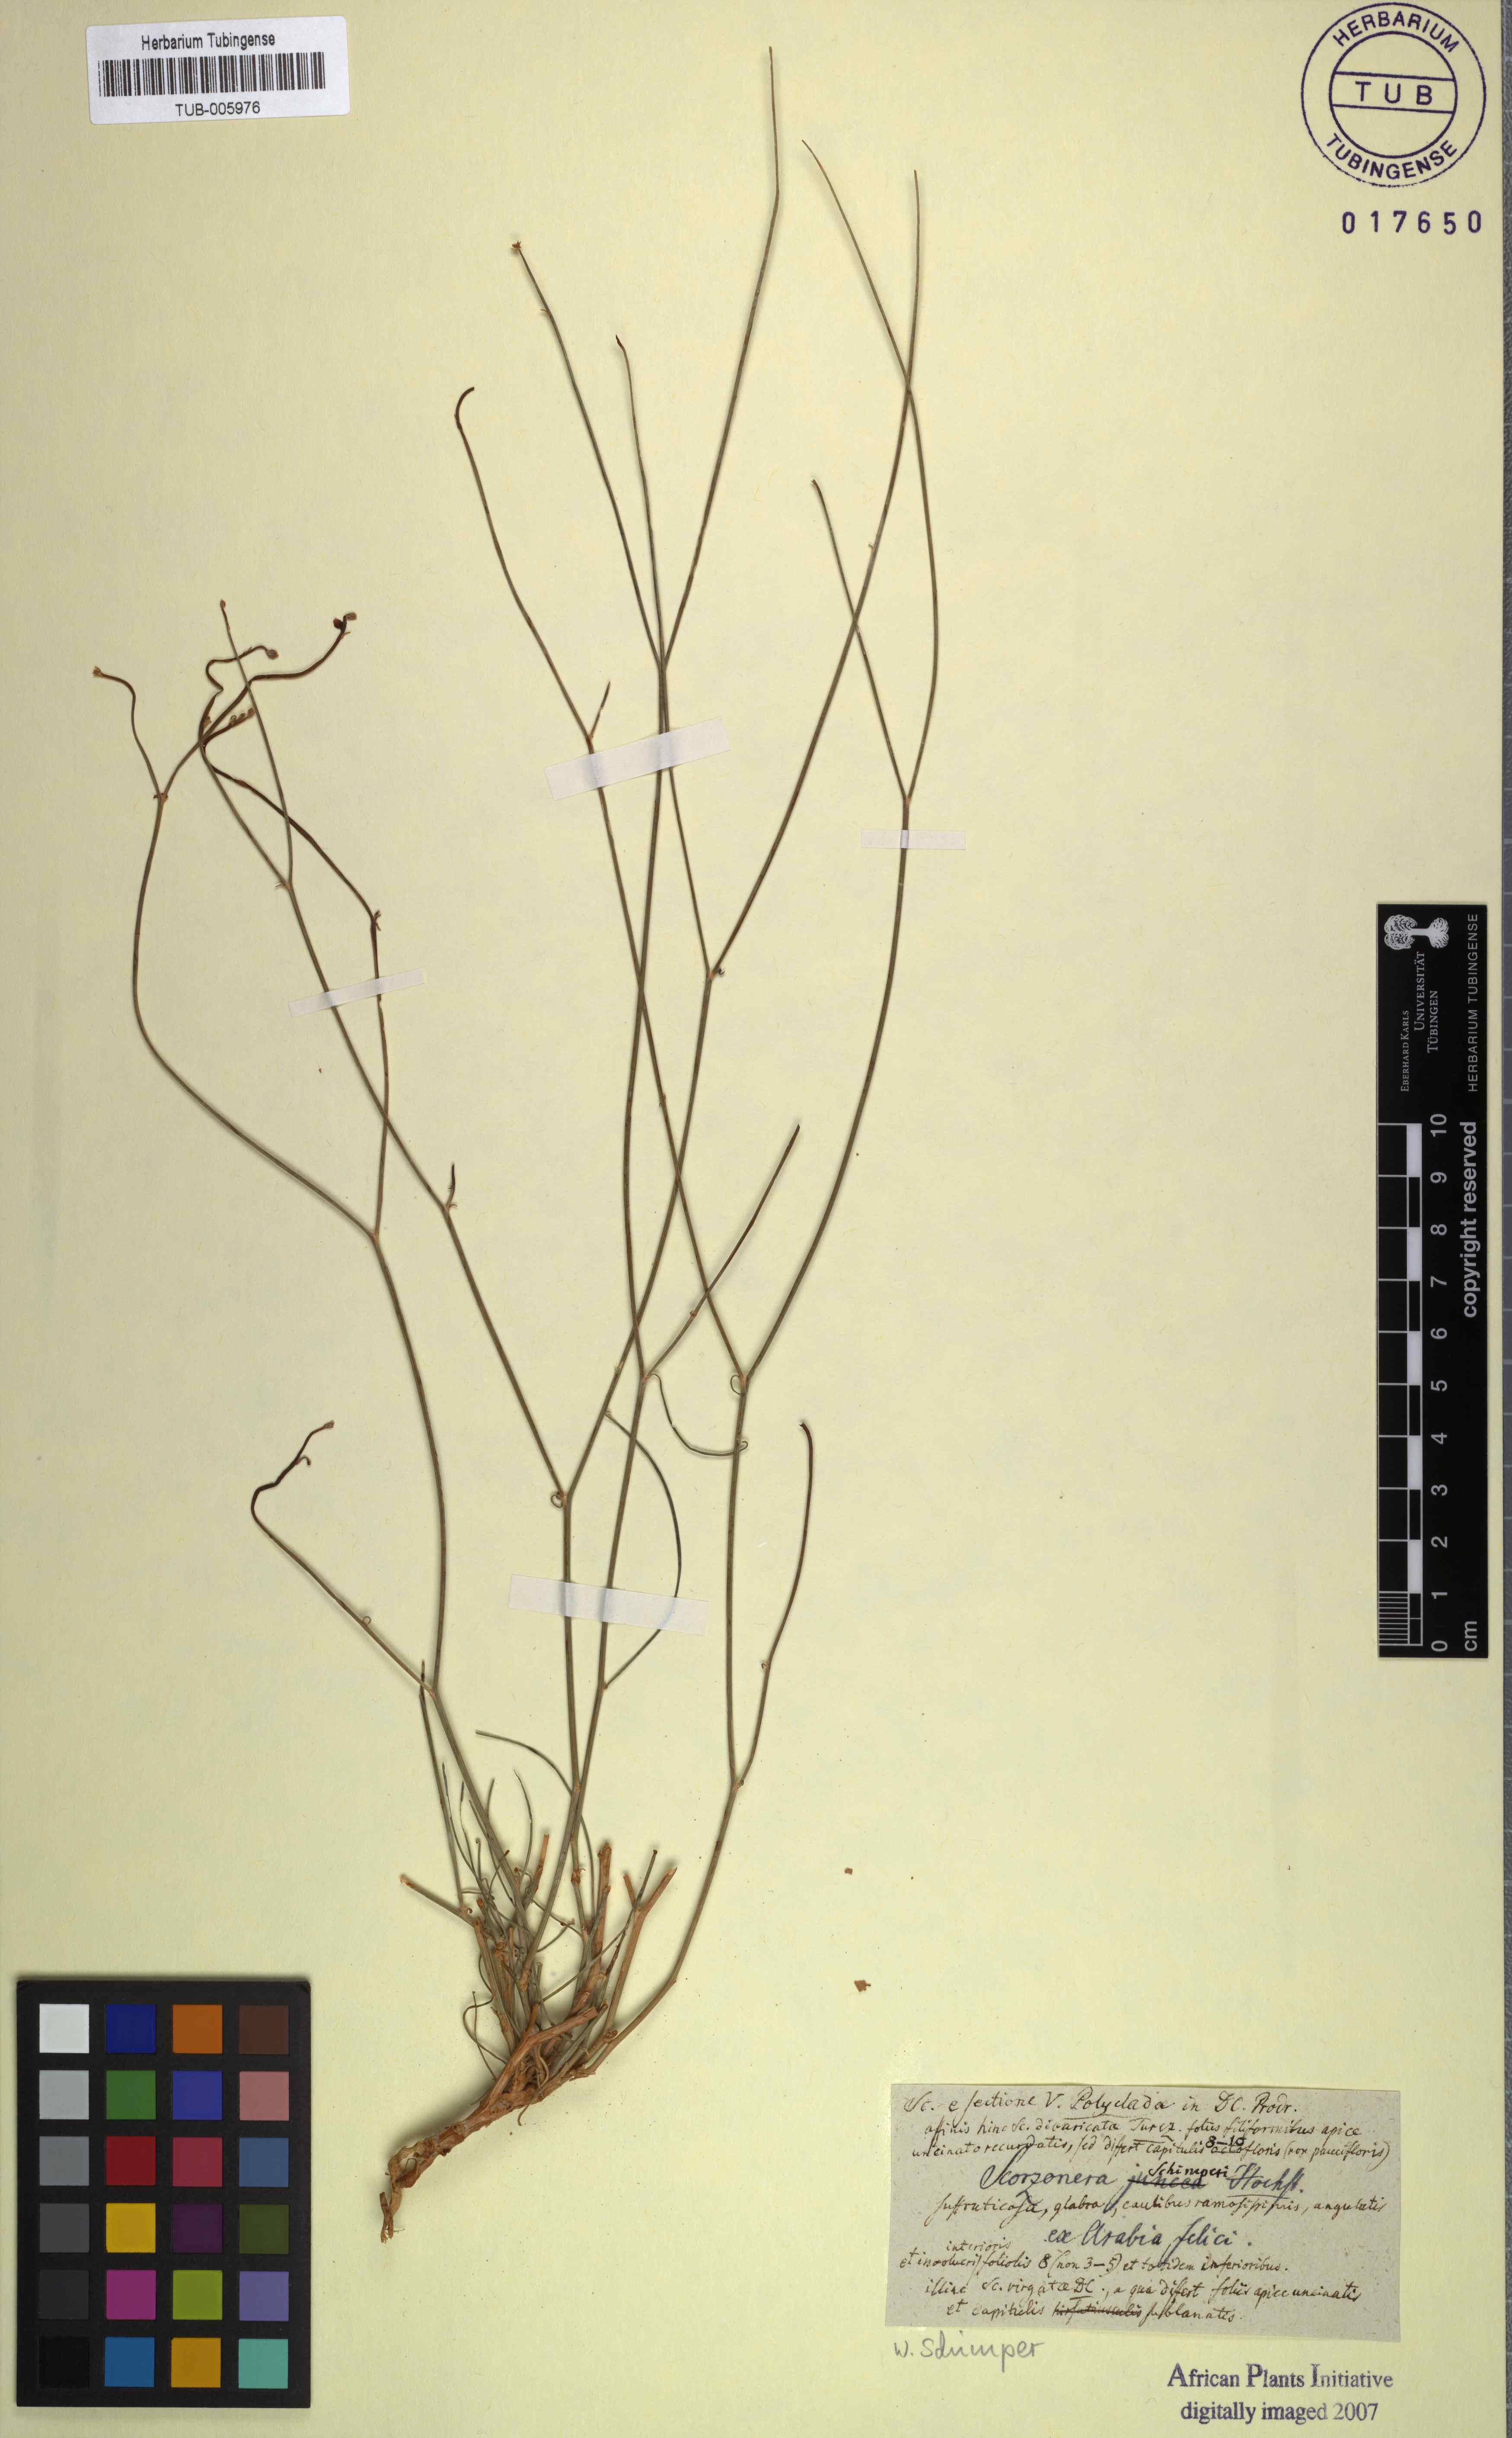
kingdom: Plantae
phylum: Tracheophyta
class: Magnoliopsida
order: Asterales
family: Asteraceae
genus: Scorzonera
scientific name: Scorzonera
